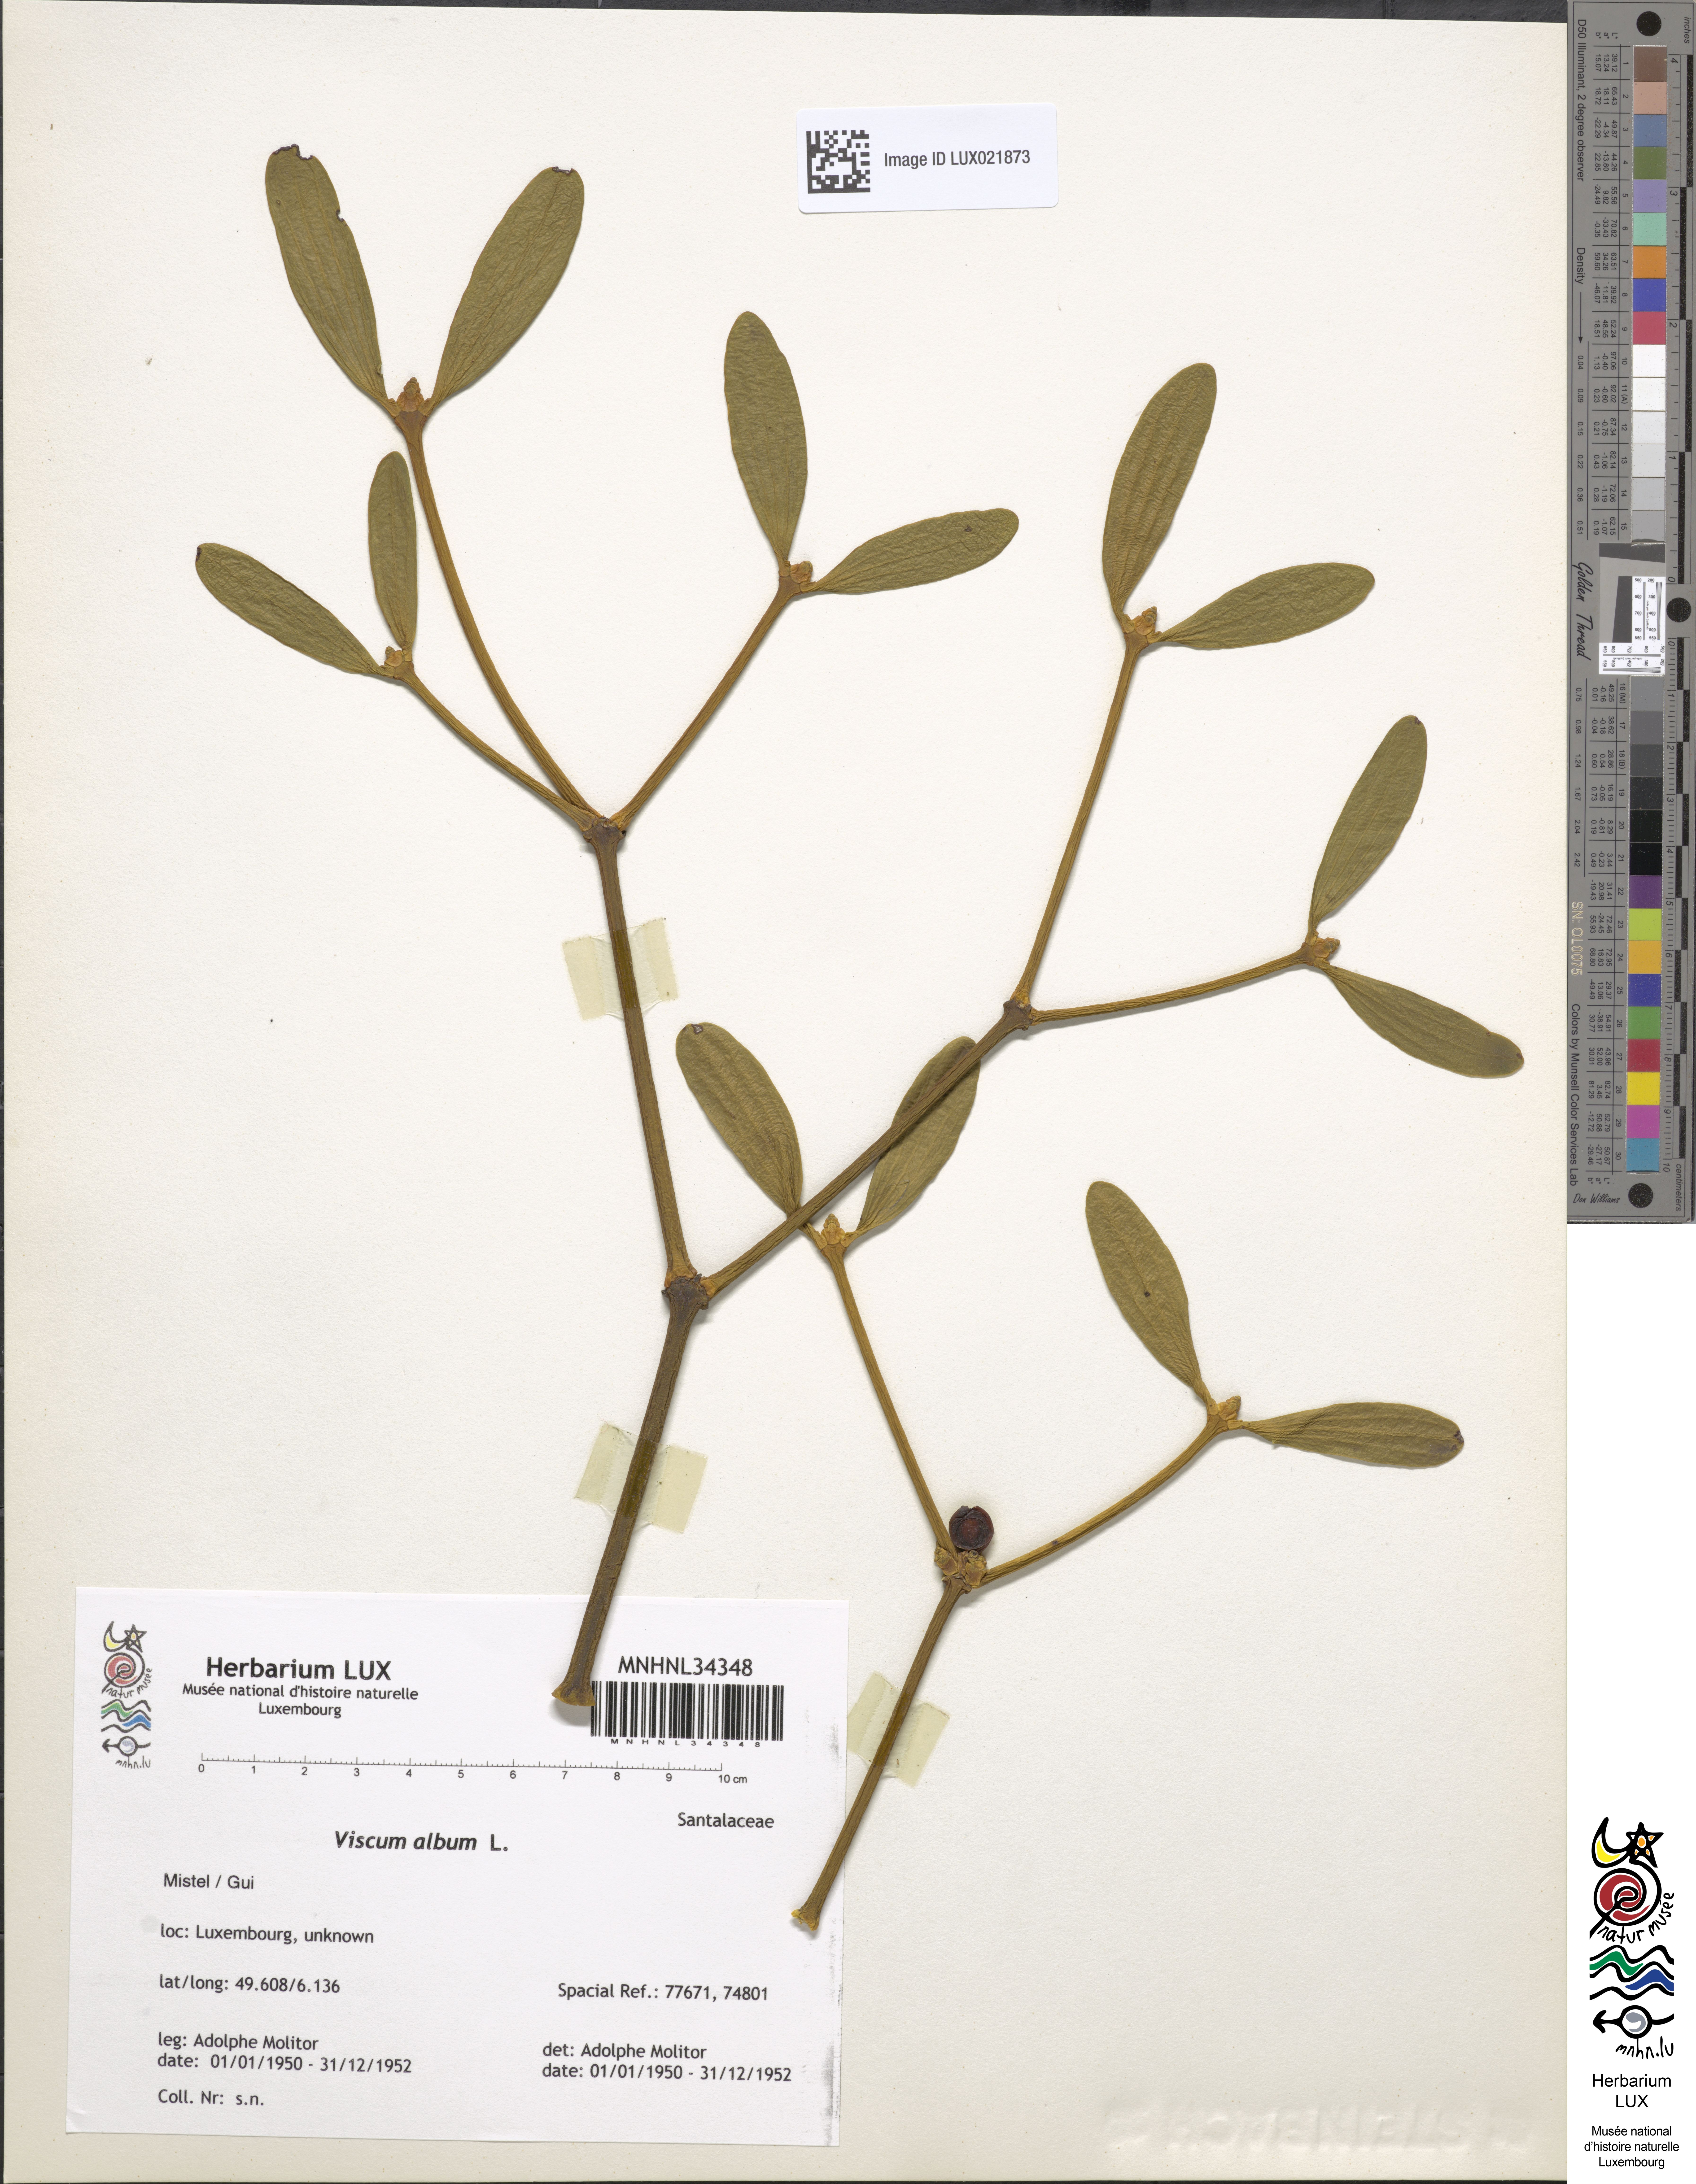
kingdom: Plantae
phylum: Tracheophyta
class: Magnoliopsida
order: Santalales
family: Viscaceae
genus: Viscum
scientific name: Viscum album
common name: Mistletoe
